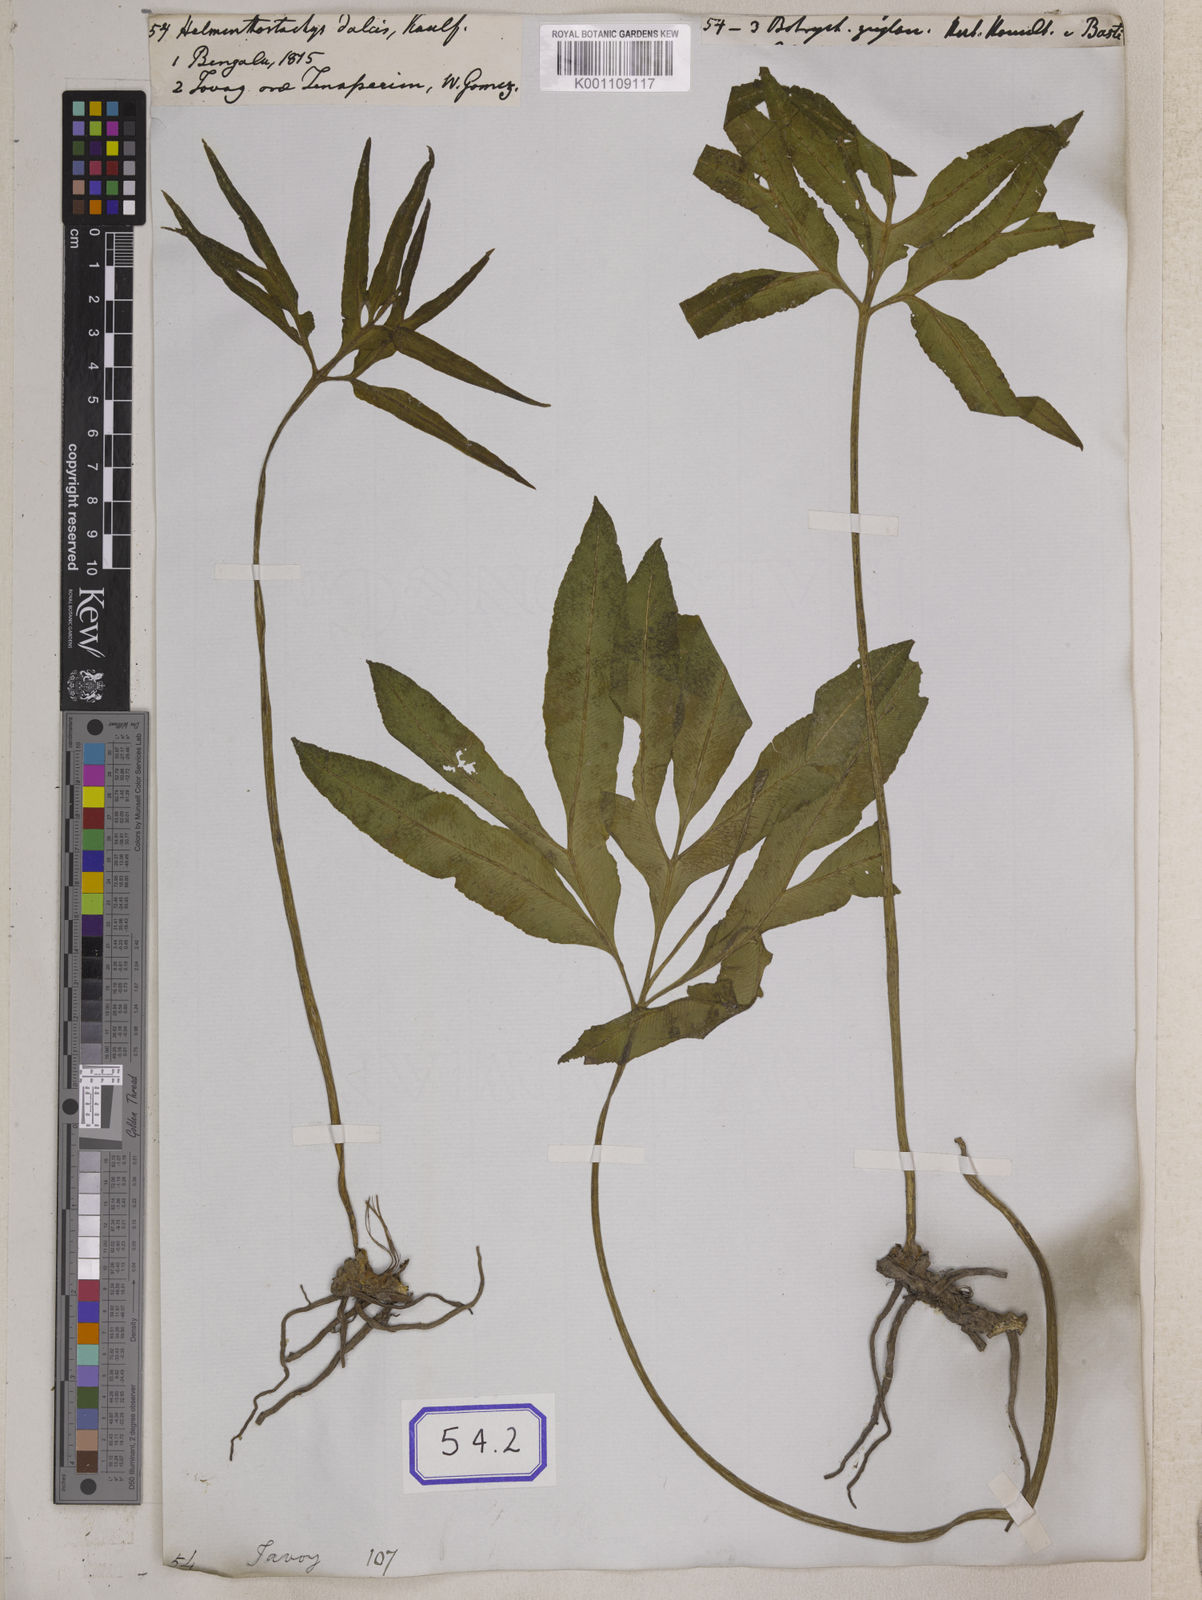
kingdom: Plantae
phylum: Tracheophyta
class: Polypodiopsida
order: Ophioglossales
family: Ophioglossaceae
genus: Helminthostachys
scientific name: Helminthostachys zeylanica
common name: Flowering fern
